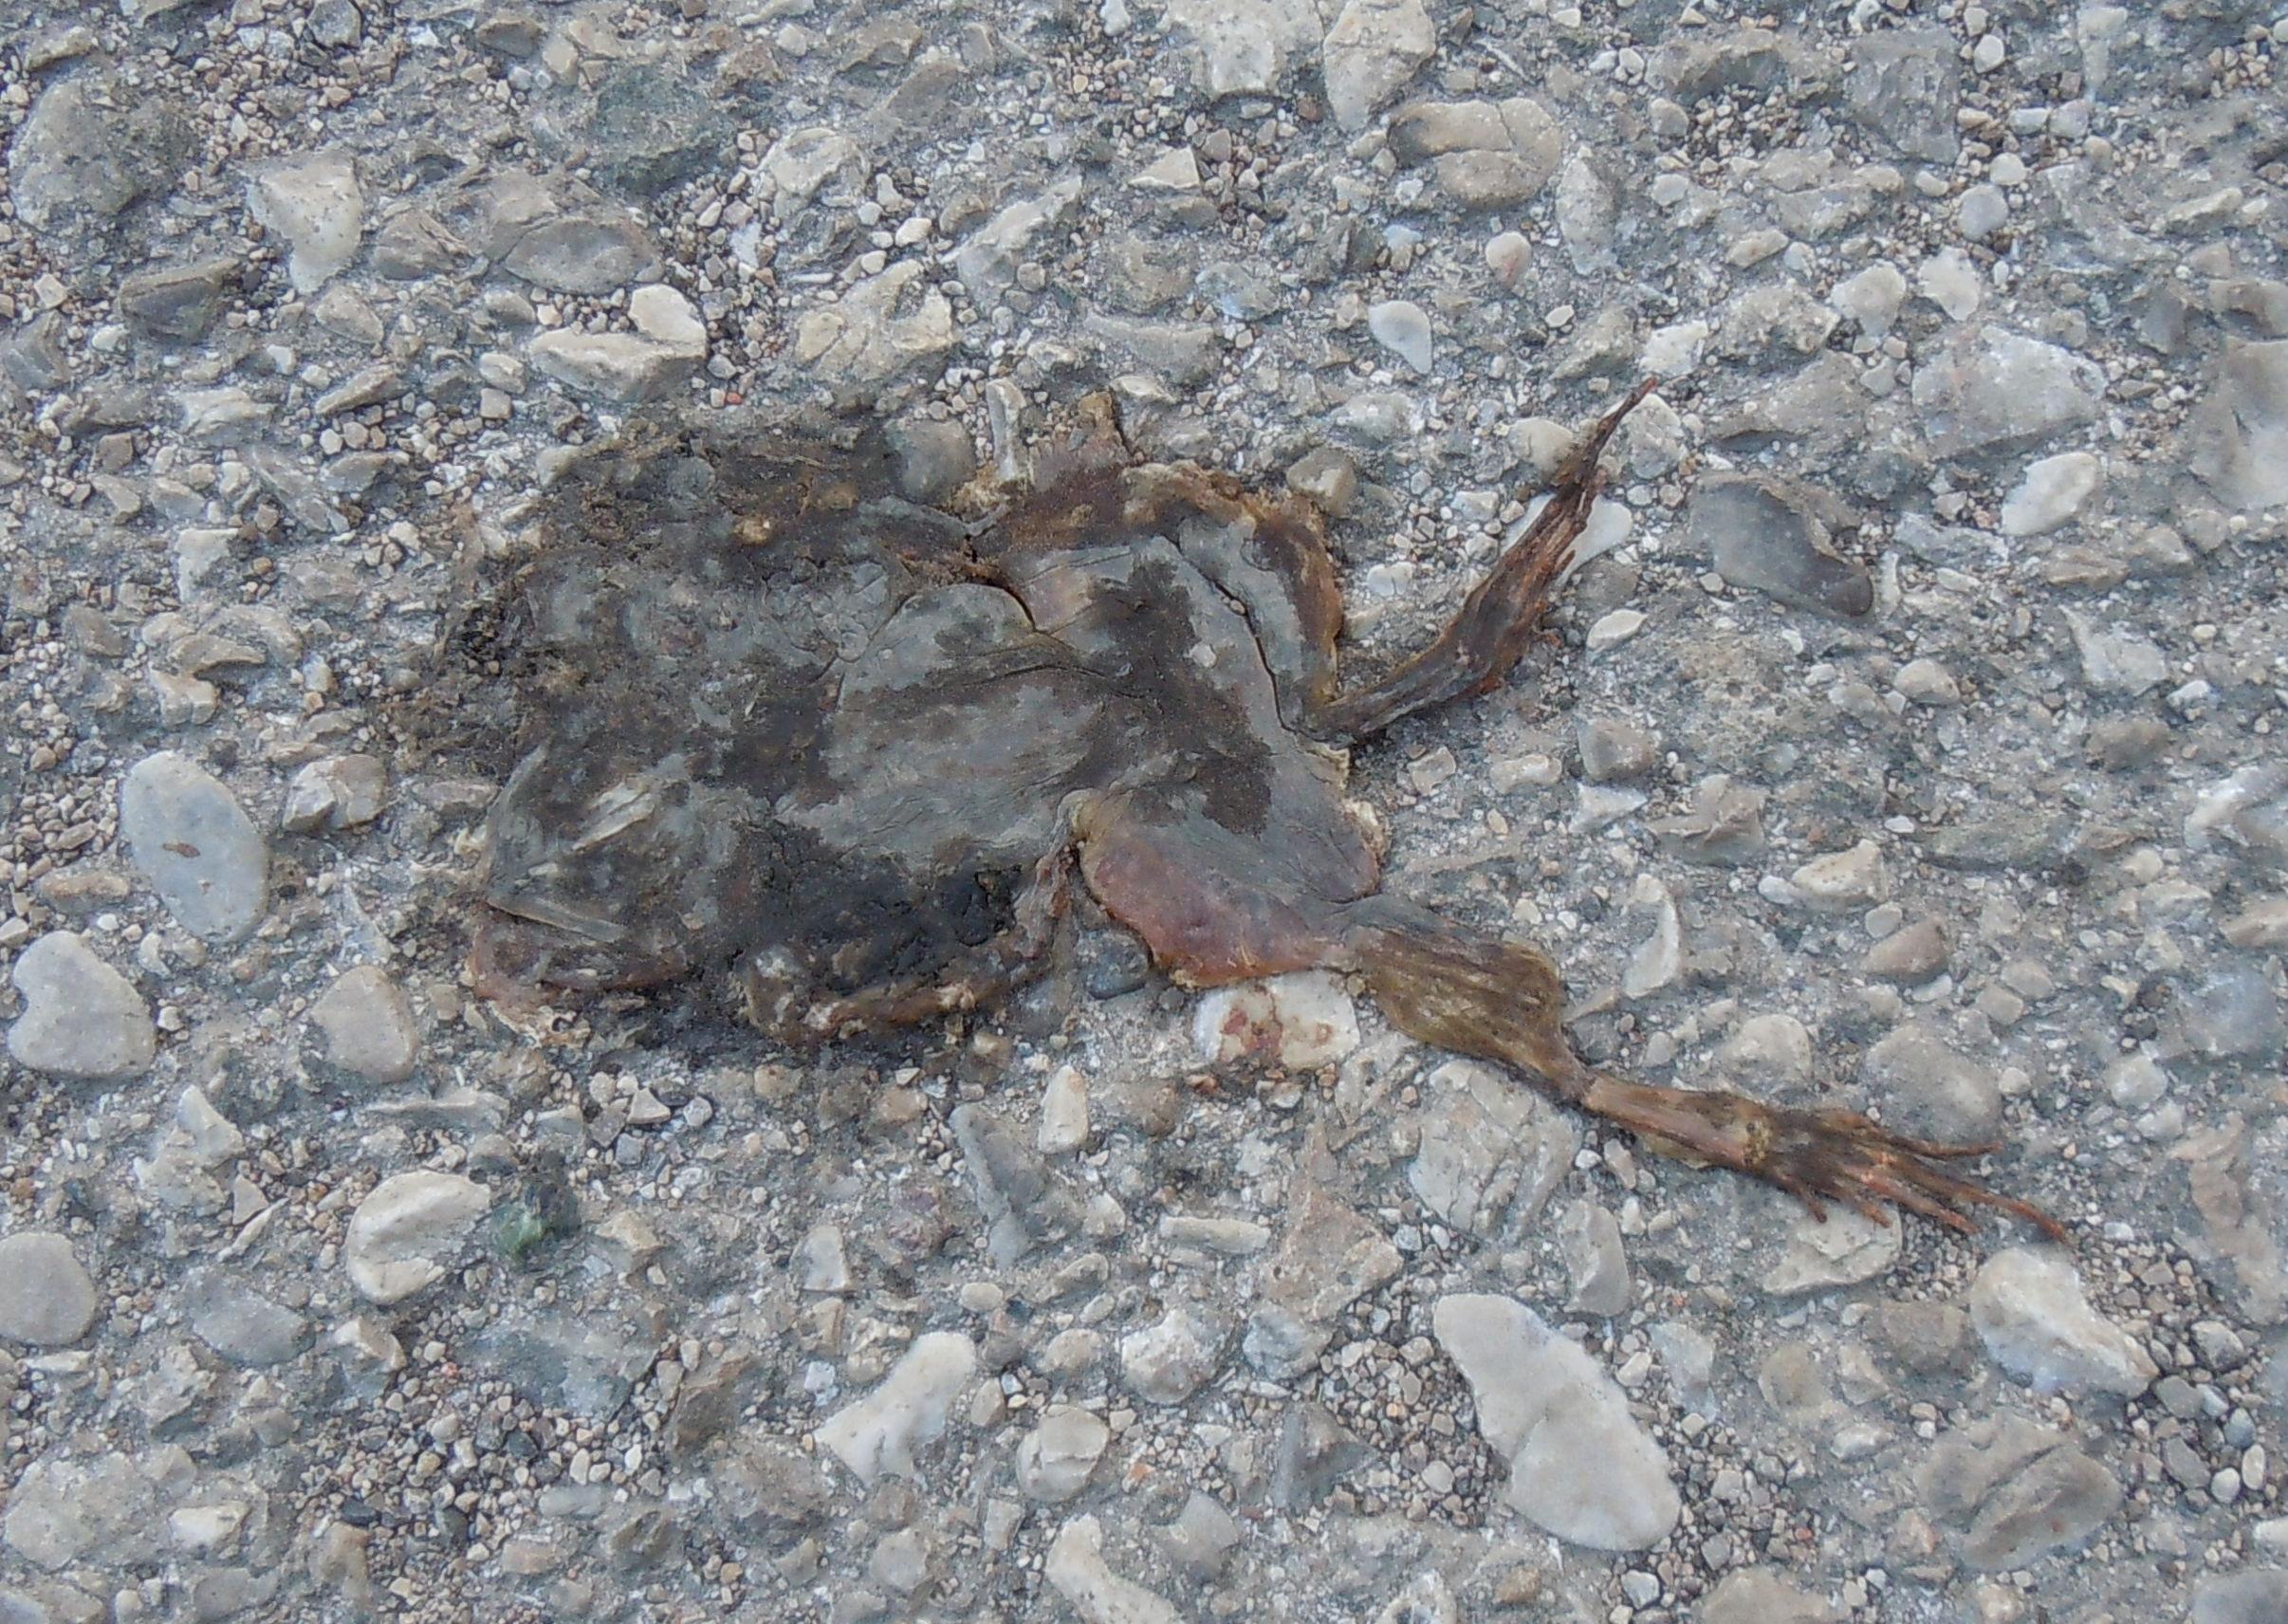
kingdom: Animalia
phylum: Chordata
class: Amphibia
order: Anura
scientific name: Anura
